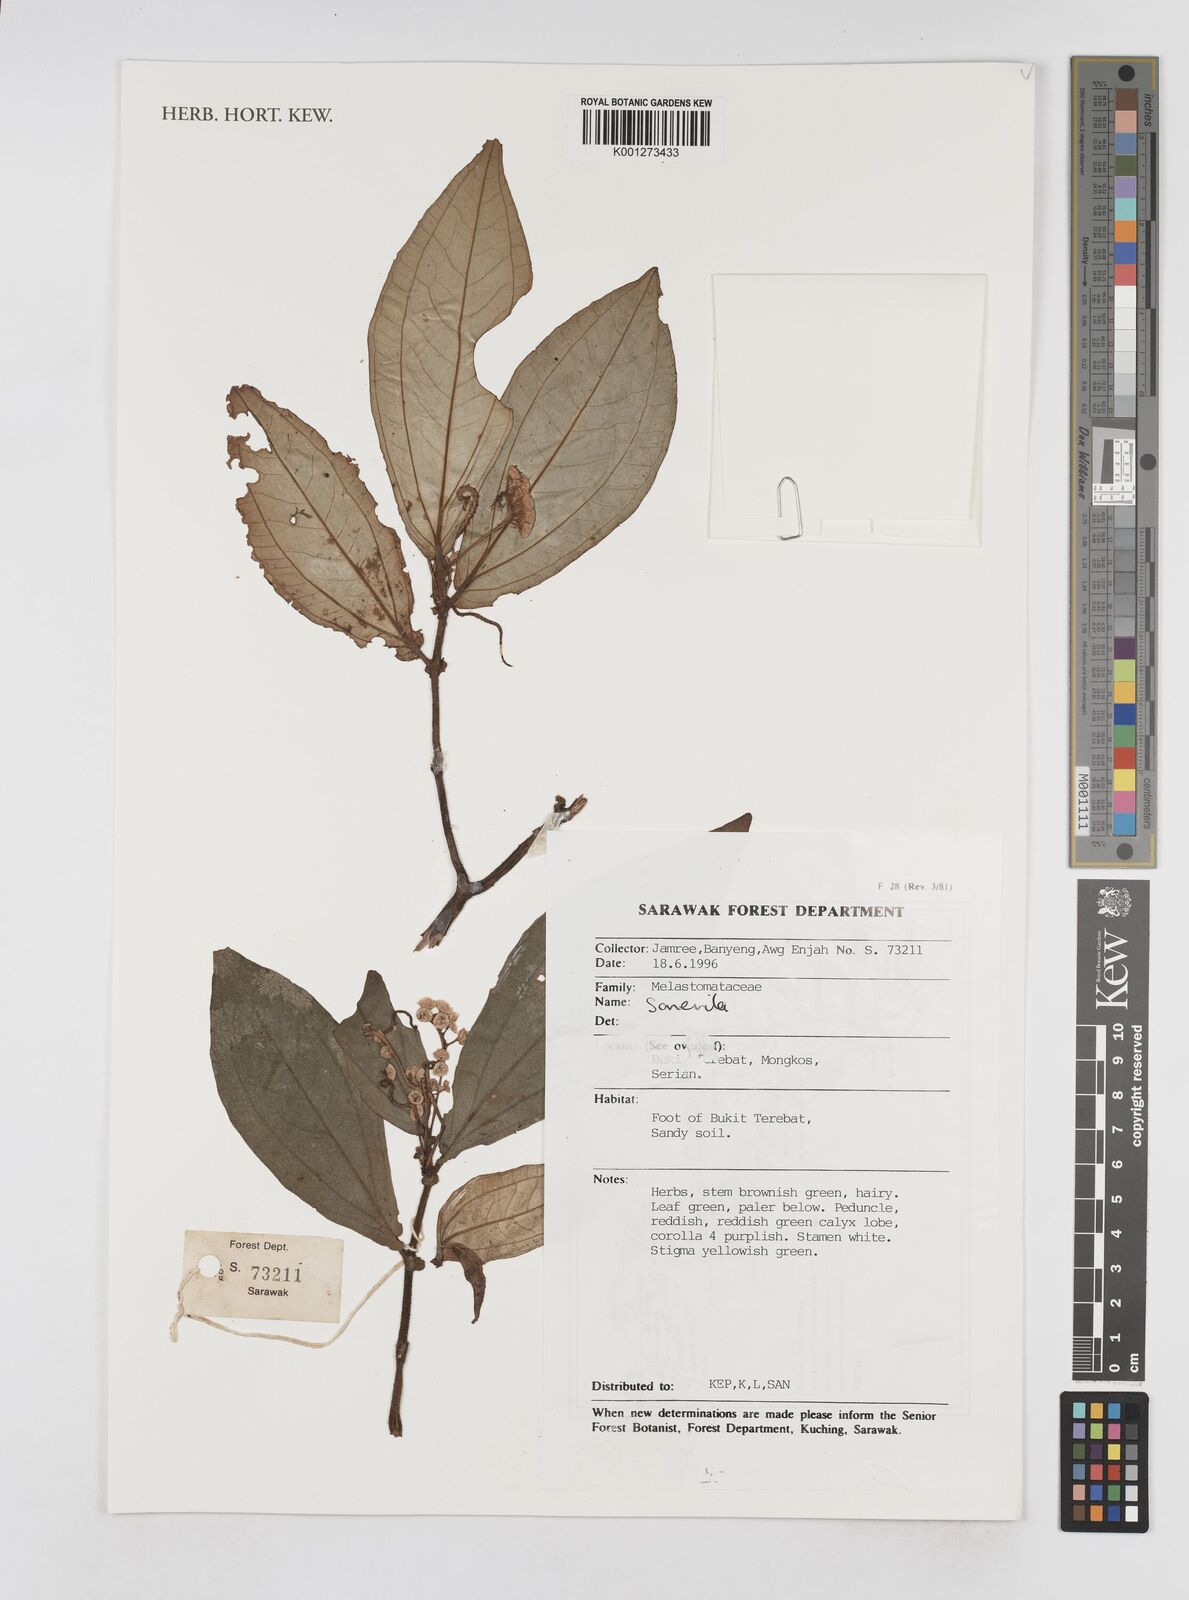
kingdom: Plantae
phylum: Tracheophyta
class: Magnoliopsida
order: Myrtales
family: Melastomataceae
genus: Sonerila
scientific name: Sonerila
